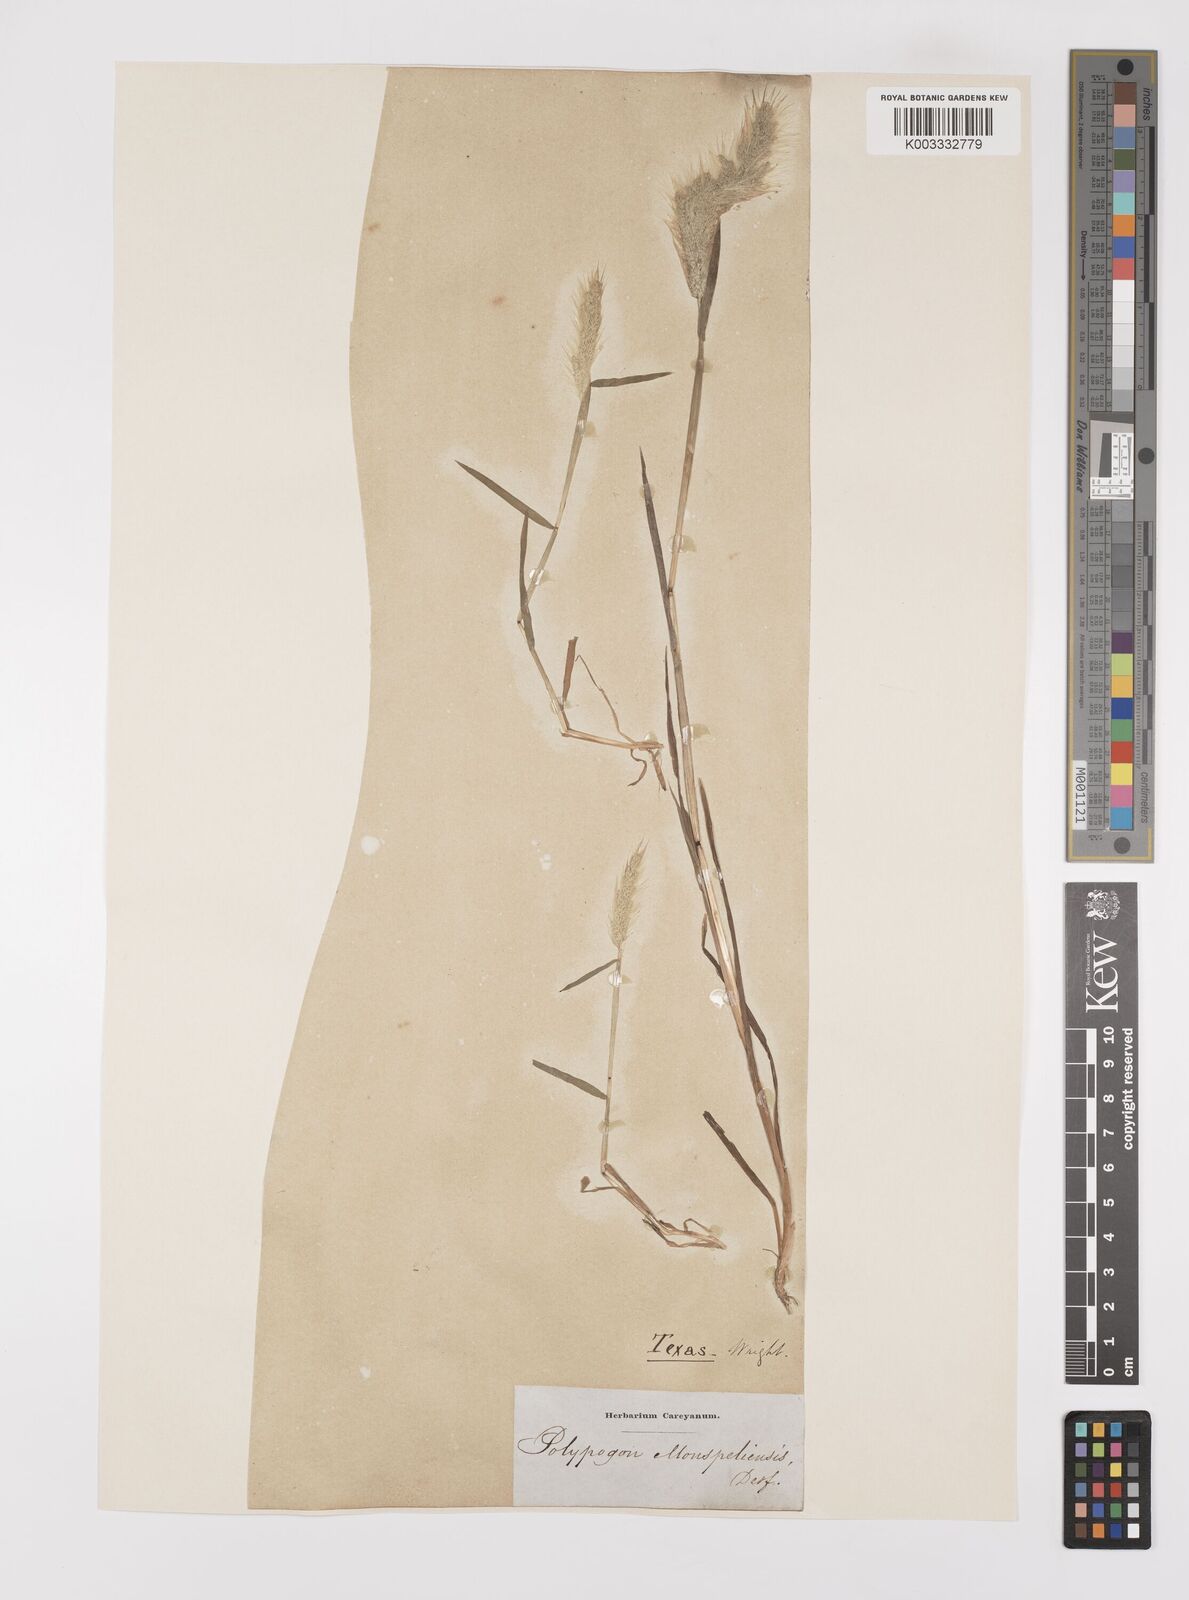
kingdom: Plantae
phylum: Tracheophyta
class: Liliopsida
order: Poales
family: Poaceae
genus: Polypogon
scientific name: Polypogon monspeliensis
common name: Annual rabbitsfoot grass
